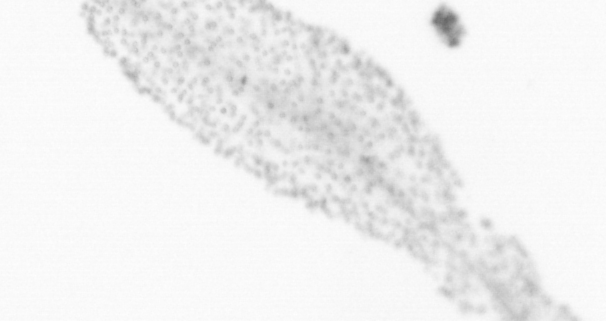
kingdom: Chromista
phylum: Ochrophyta
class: Bacillariophyceae
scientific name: Bacillariophyceae
